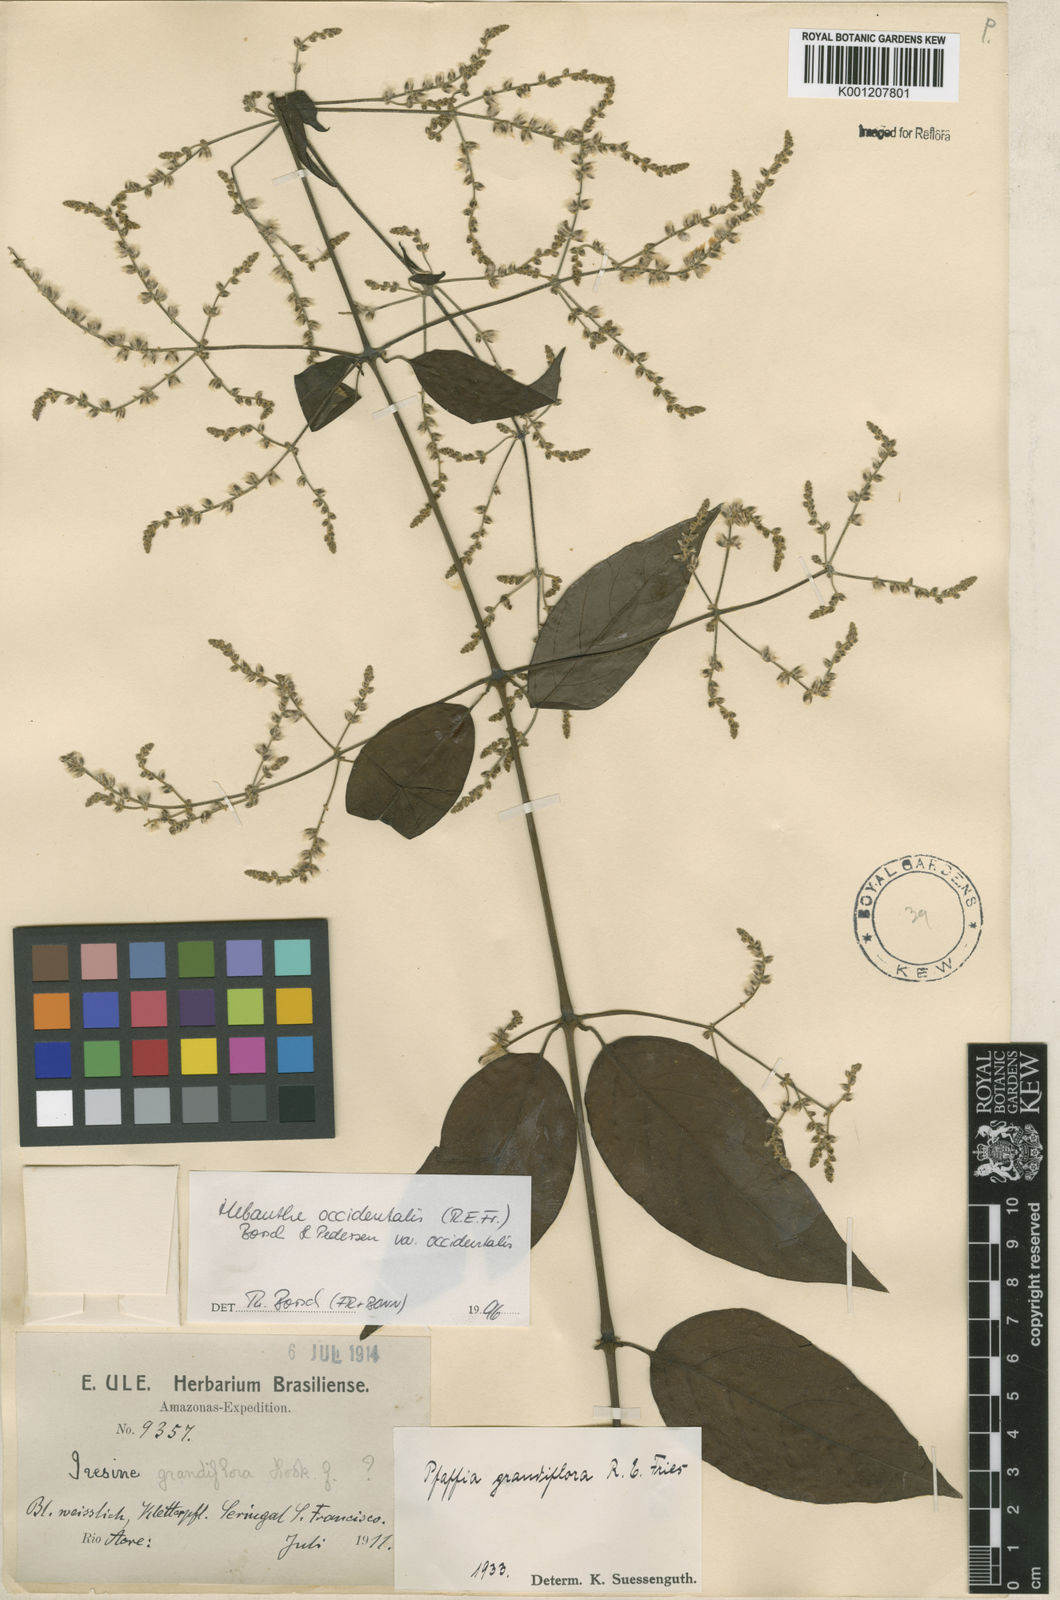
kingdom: Plantae
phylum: Tracheophyta
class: Magnoliopsida
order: Caryophyllales
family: Amaranthaceae
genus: Hebanthe
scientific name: Hebanthe occidentalis
